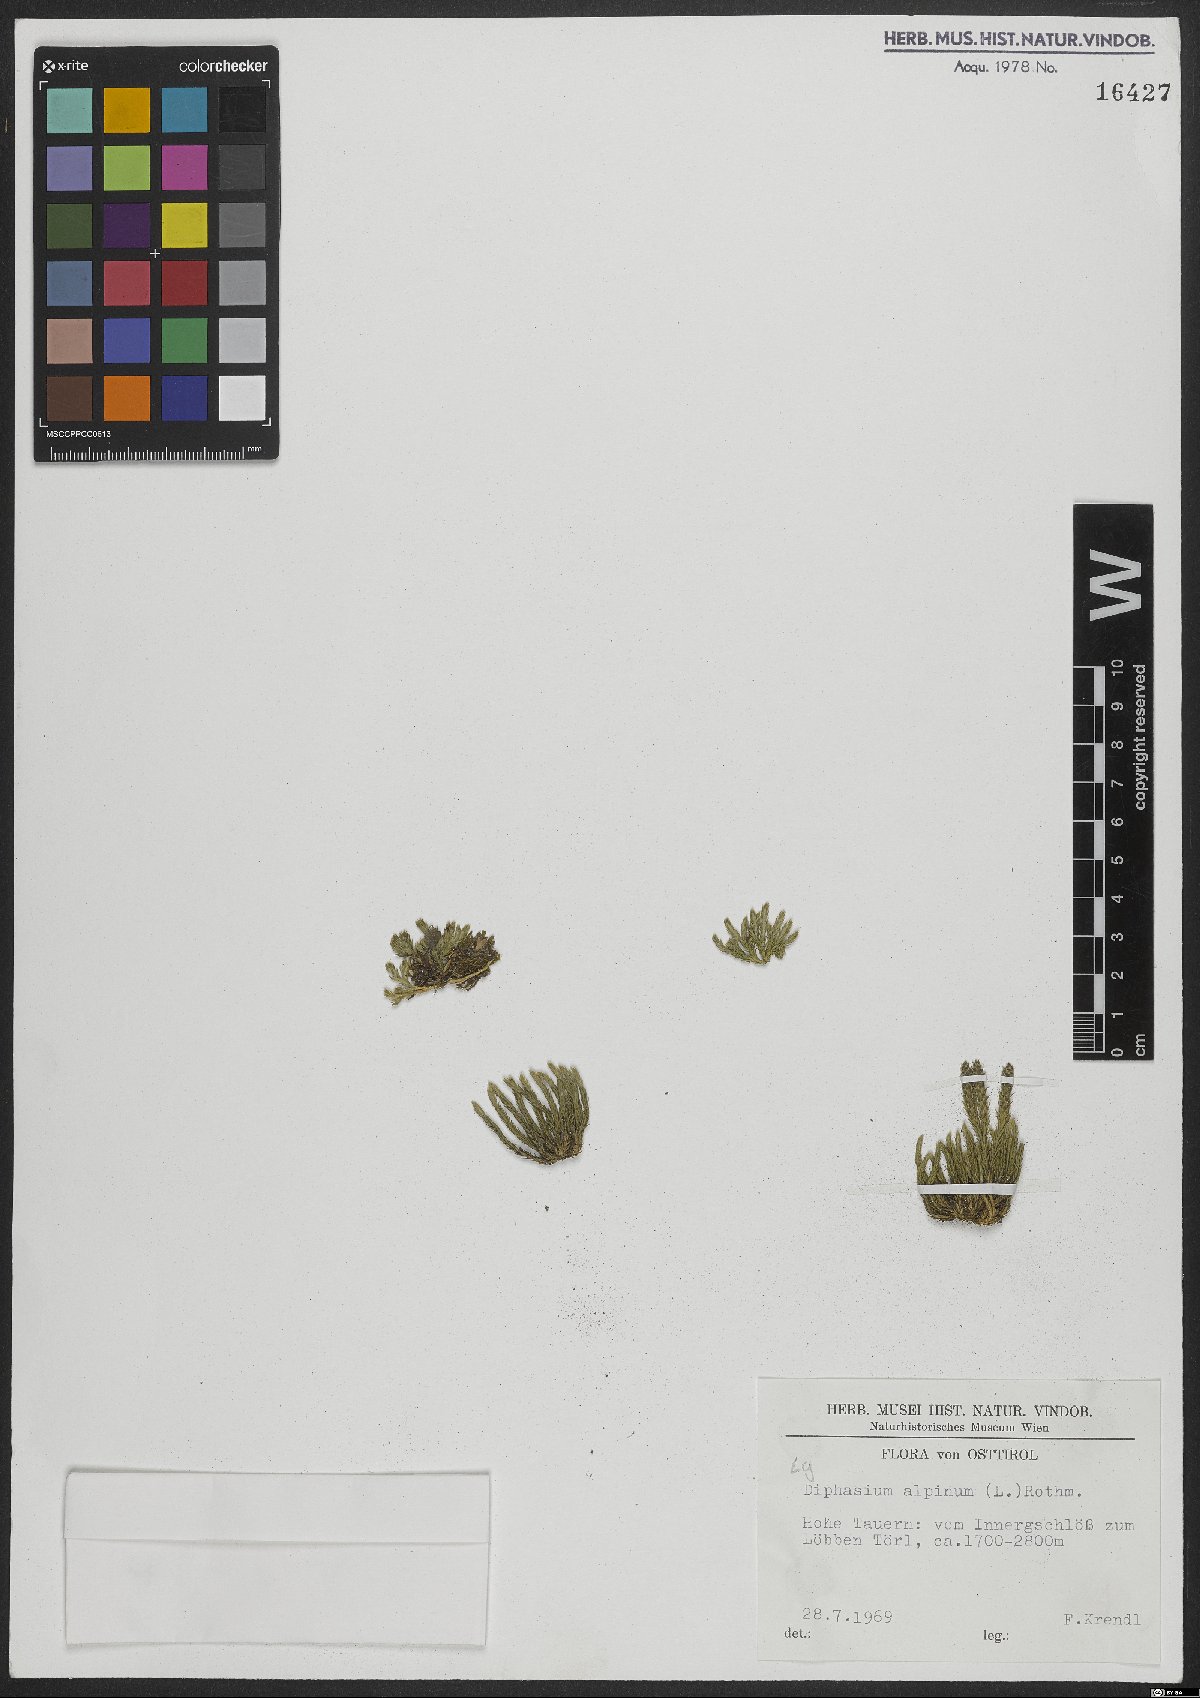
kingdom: Plantae
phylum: Tracheophyta
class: Lycopodiopsida
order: Lycopodiales
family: Lycopodiaceae
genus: Diphasiastrum
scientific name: Diphasiastrum alpinum
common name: Alpine clubmoss
